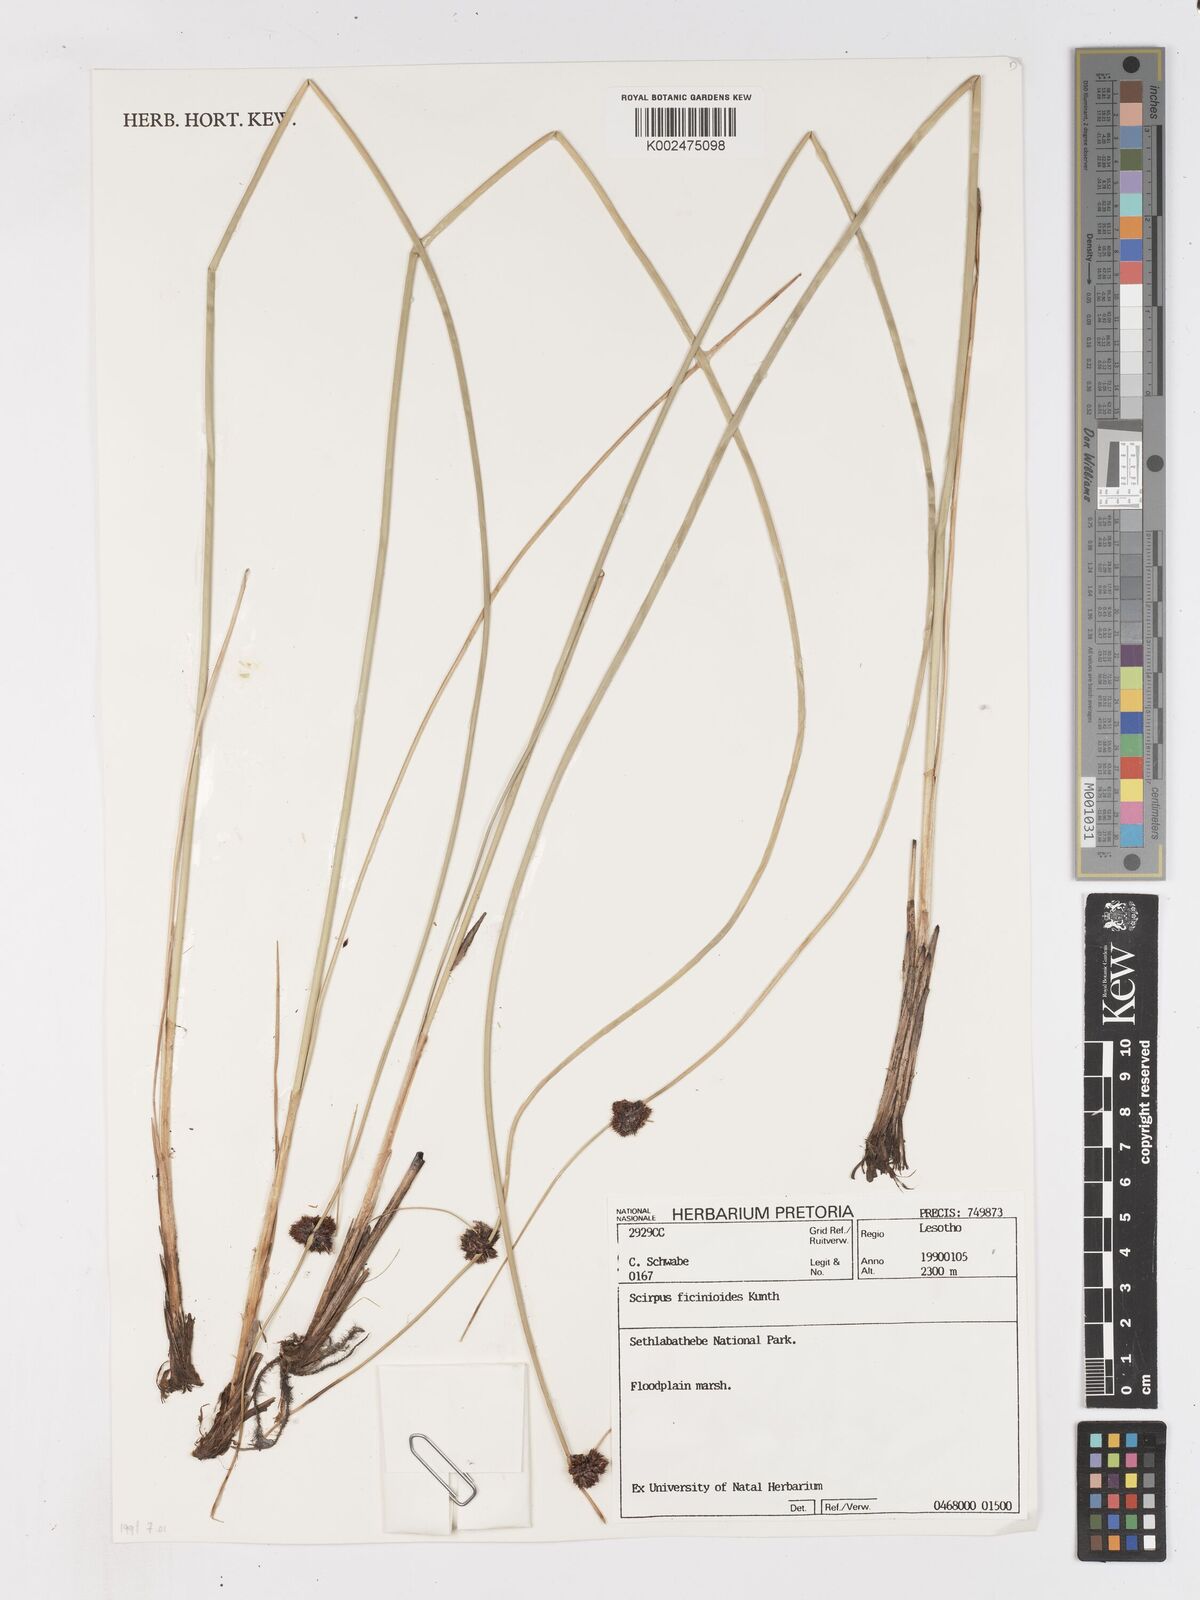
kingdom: Plantae
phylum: Tracheophyta
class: Liliopsida
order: Poales
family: Cyperaceae
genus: Ficinia
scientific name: Ficinia
